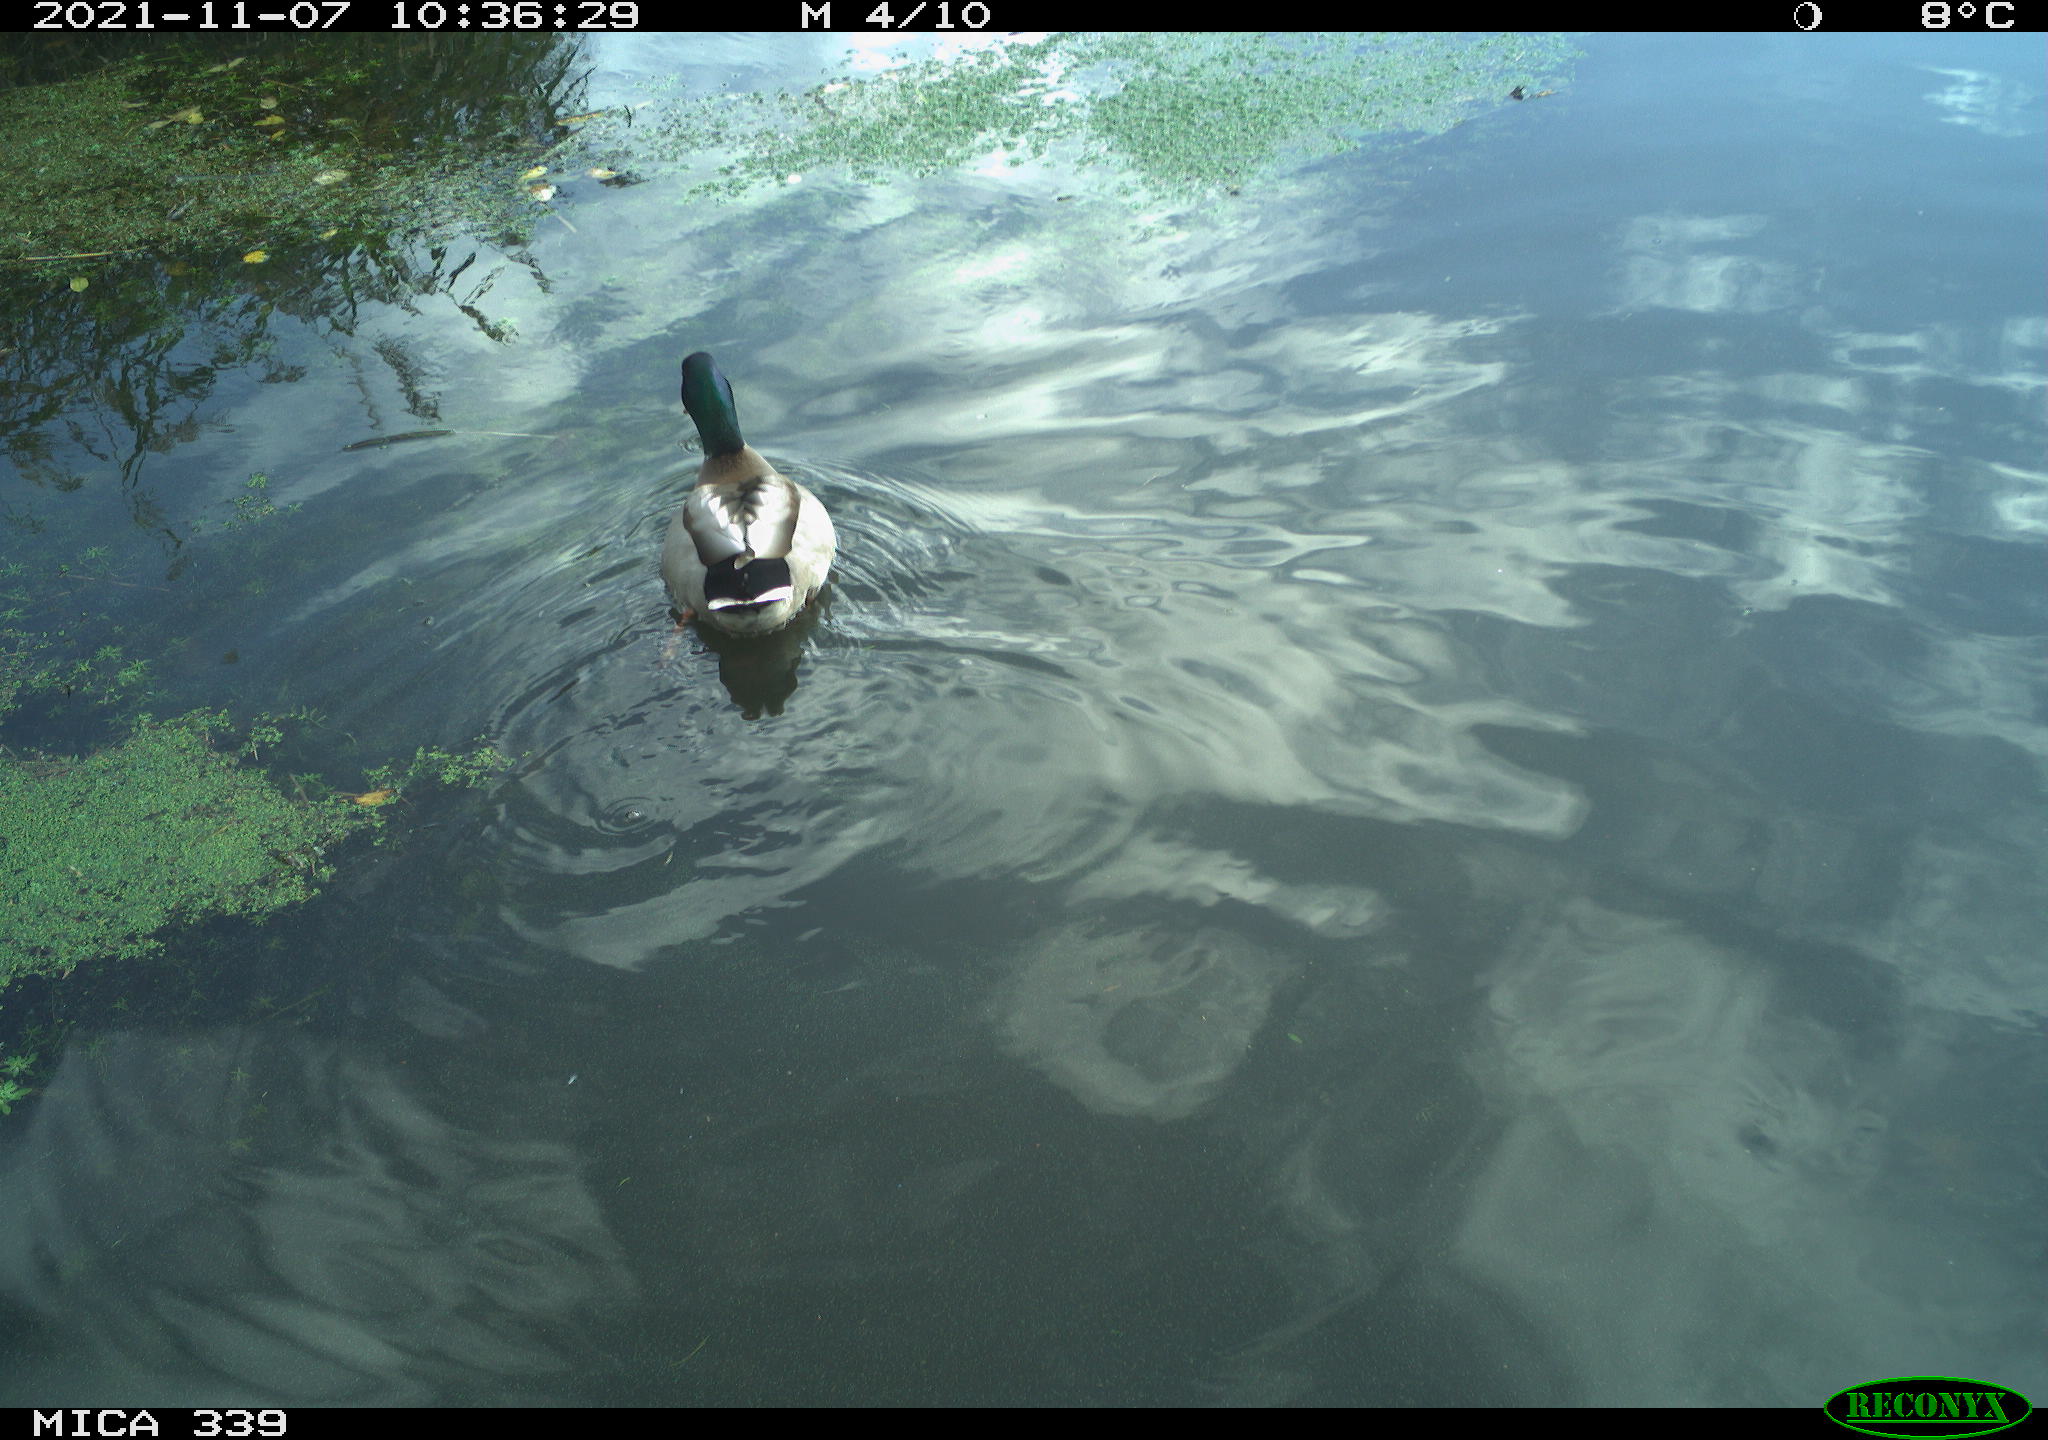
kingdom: Animalia
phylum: Chordata
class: Aves
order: Anseriformes
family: Anatidae
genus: Anas
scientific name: Anas platyrhynchos
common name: Mallard
